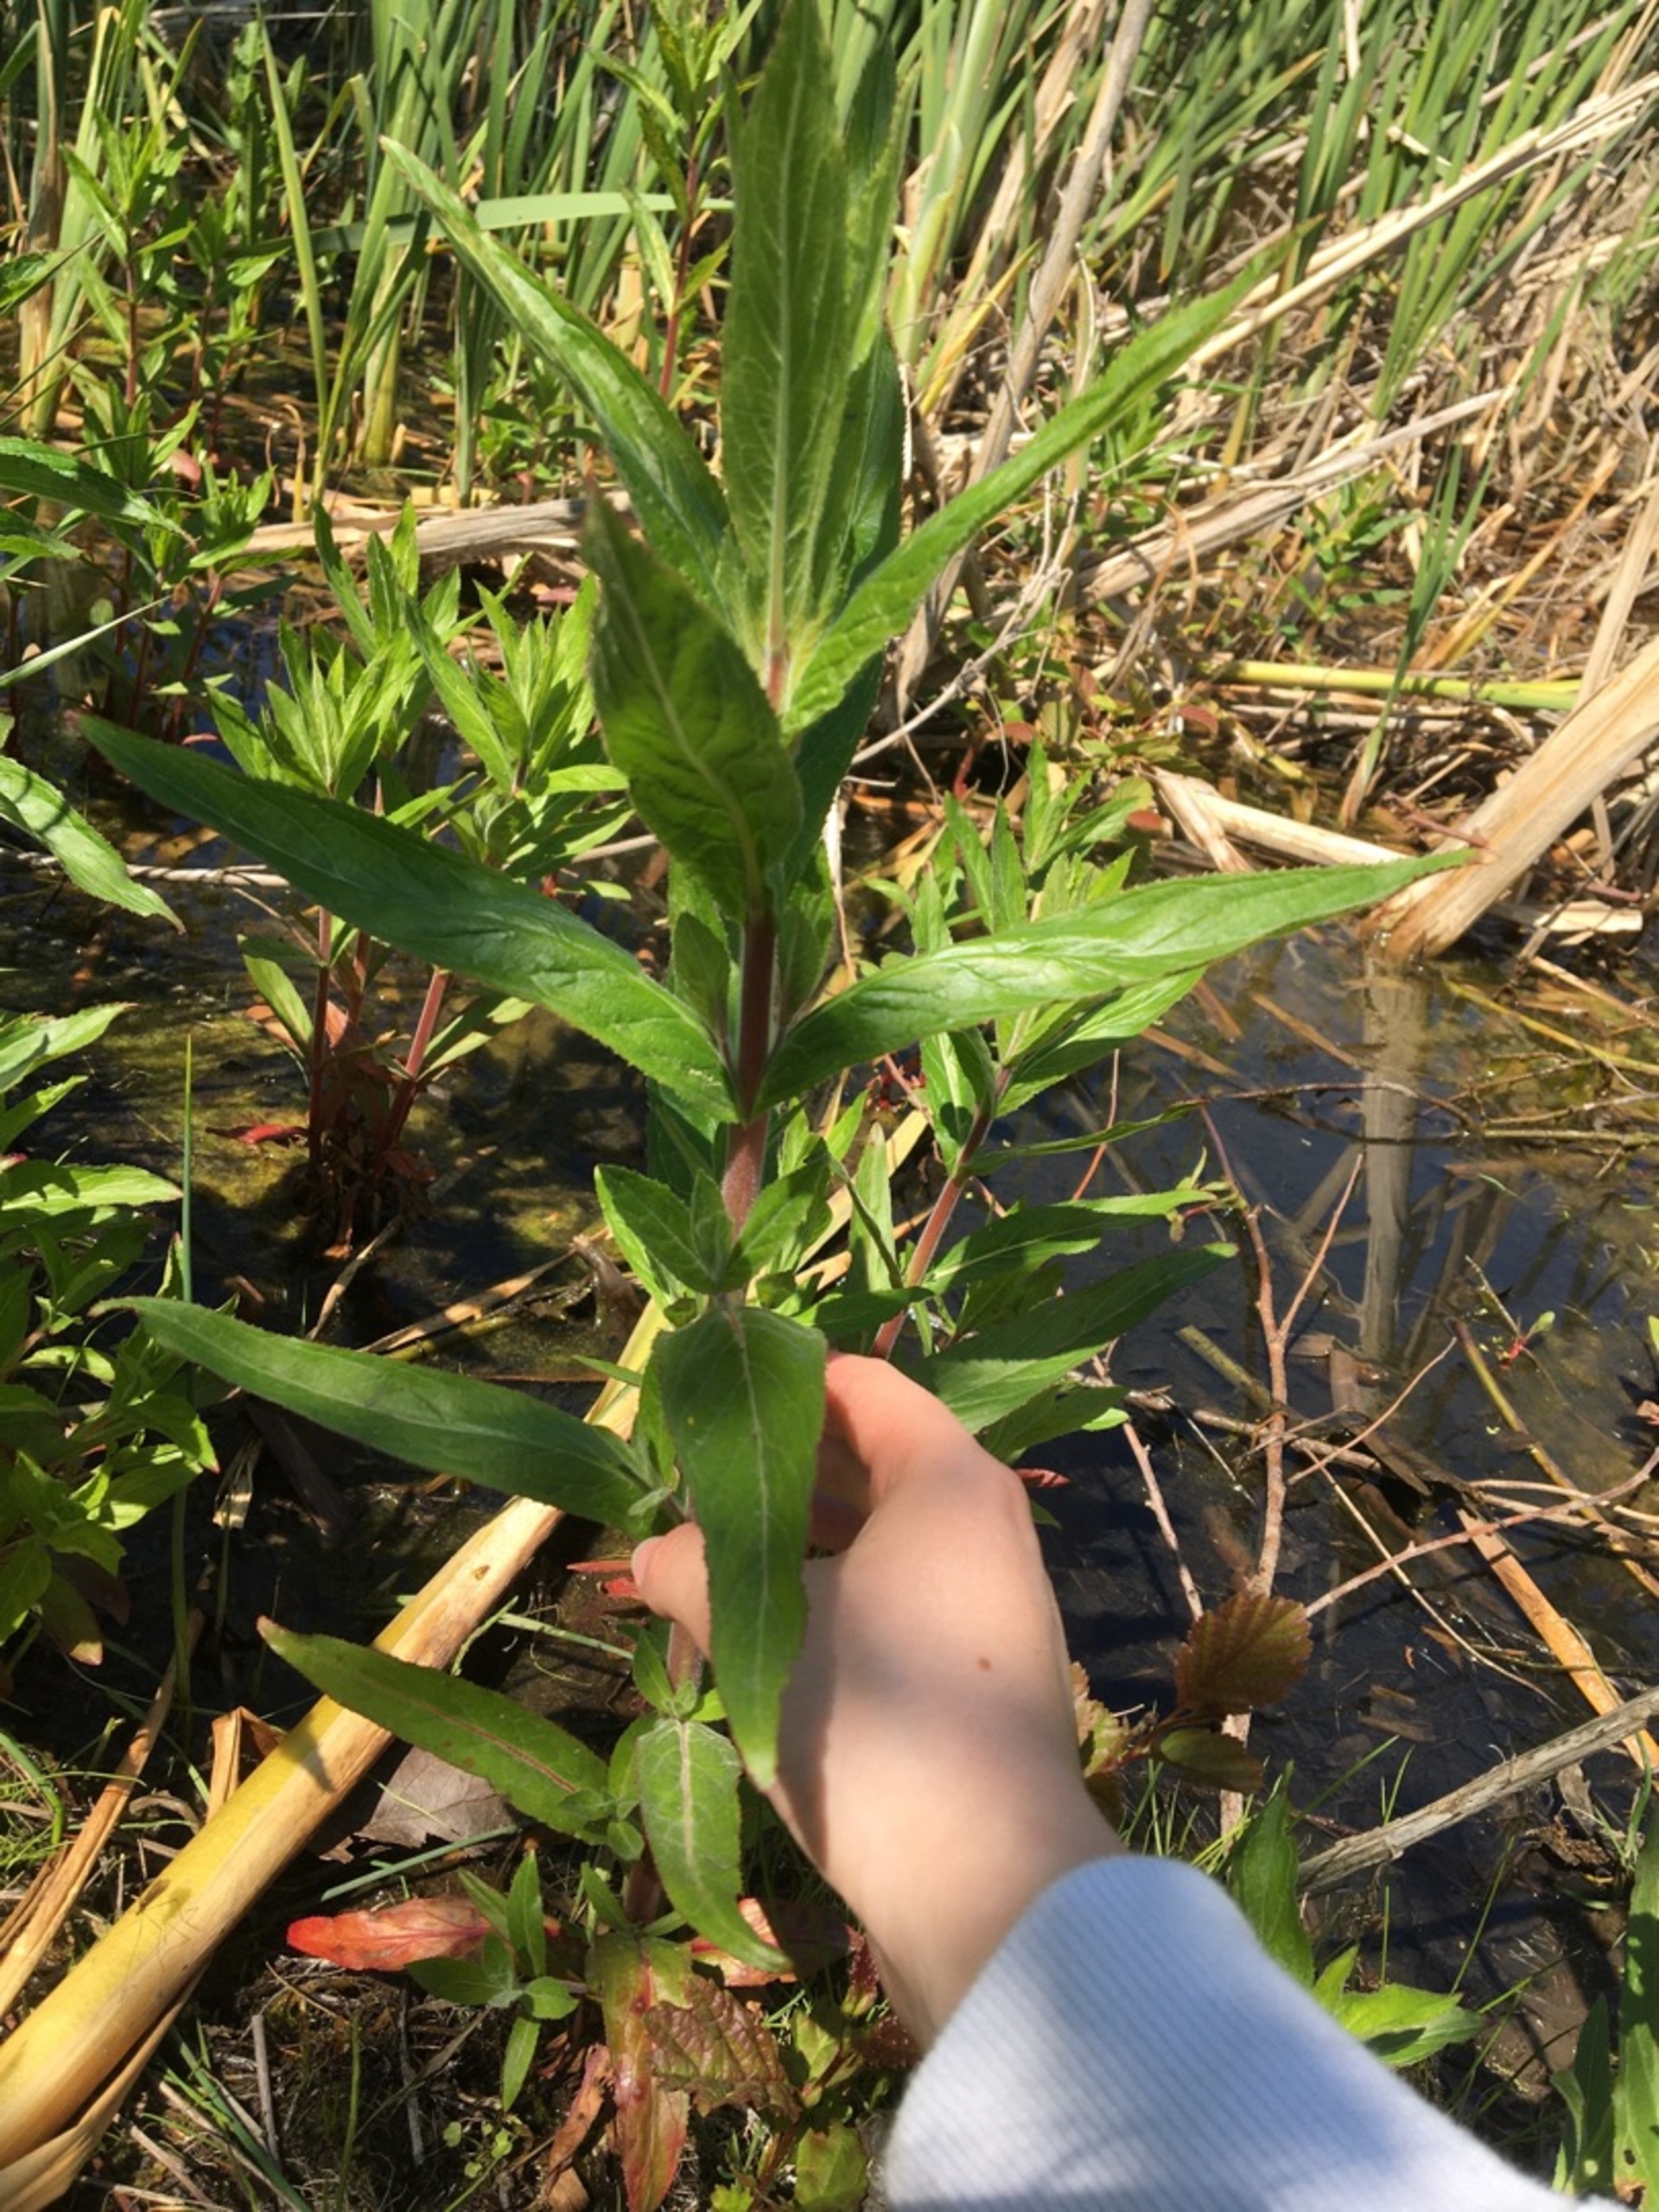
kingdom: Plantae
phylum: Tracheophyta
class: Magnoliopsida
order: Myrtales
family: Onagraceae
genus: Epilobium
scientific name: Epilobium hirsutum
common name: Lådden dueurt
